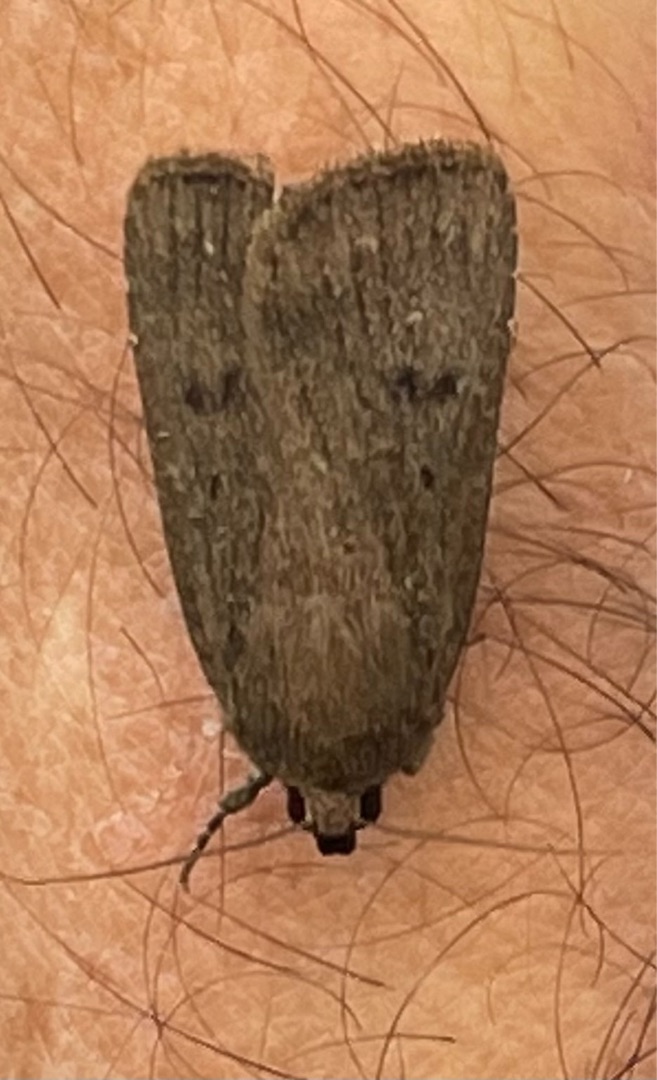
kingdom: Animalia
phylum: Arthropoda
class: Insecta
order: Lepidoptera
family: Noctuidae
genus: Amphipyra
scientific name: Amphipyra tragopoginis
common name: Blyantsugle
